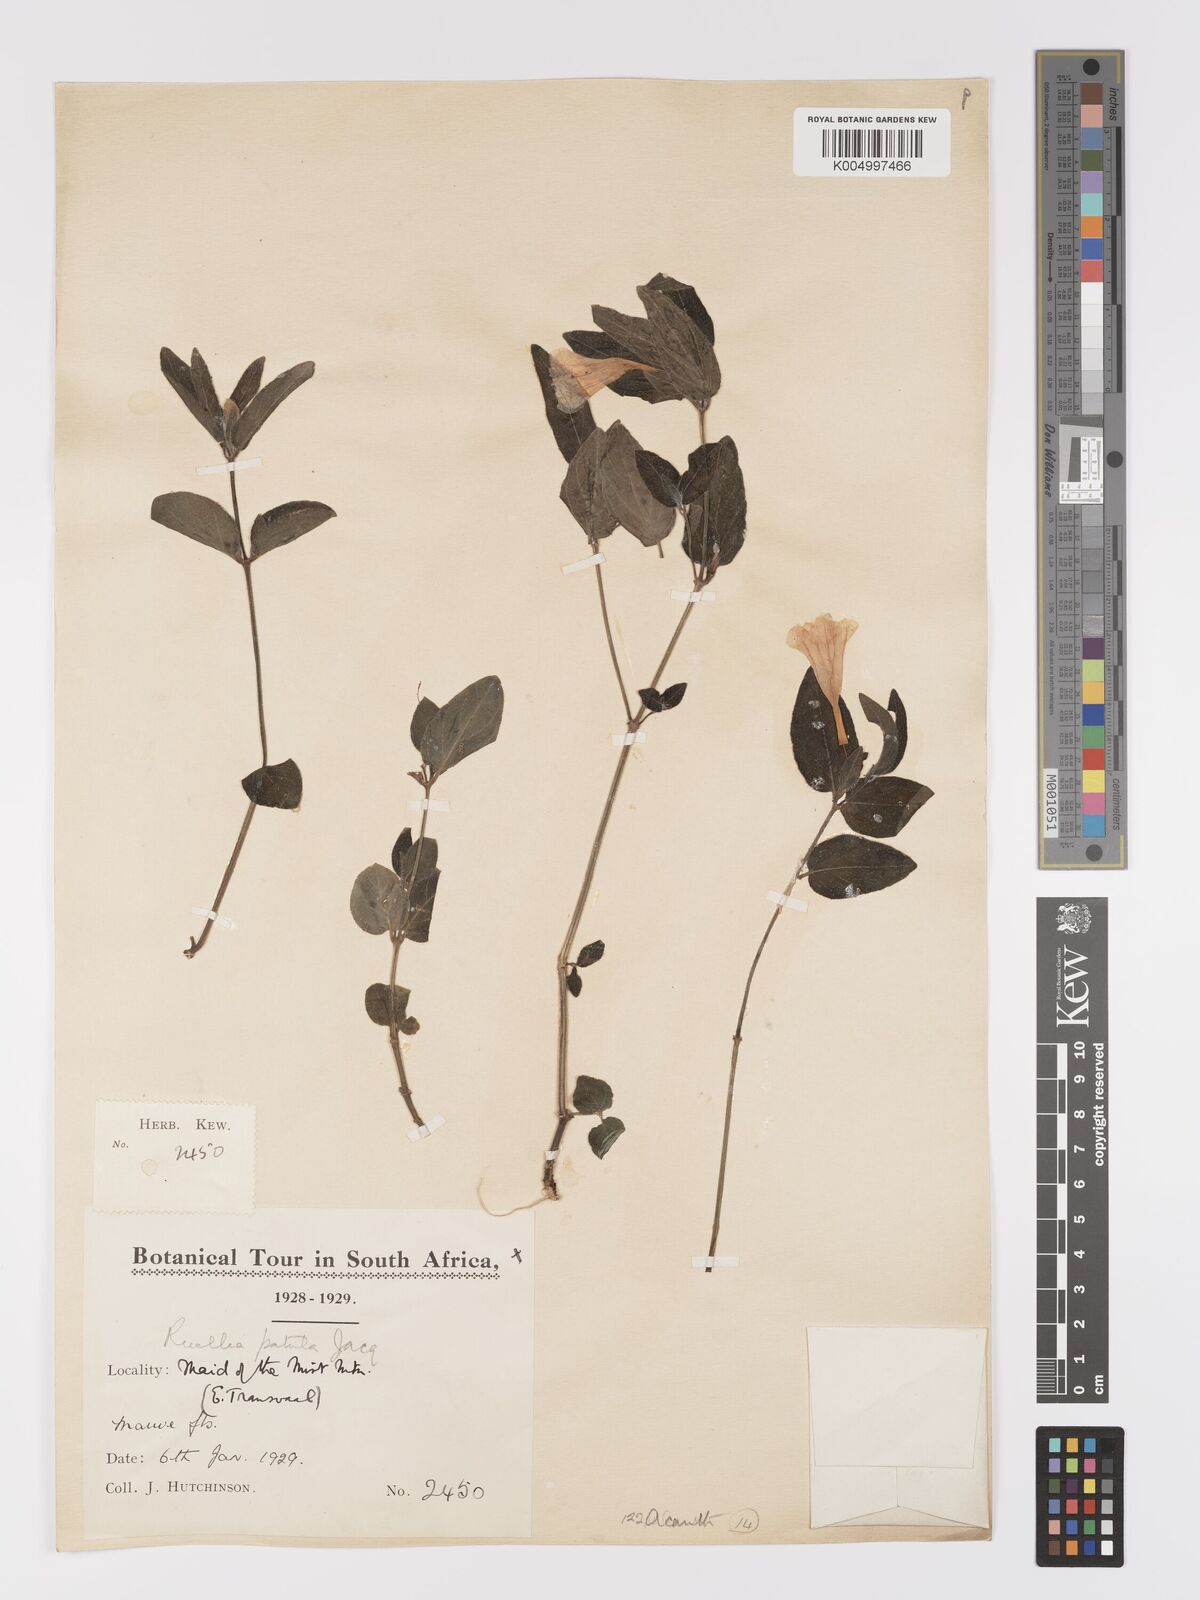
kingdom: Plantae
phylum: Tracheophyta
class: Magnoliopsida
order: Lamiales
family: Acanthaceae
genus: Ruellia
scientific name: Ruellia cordata
